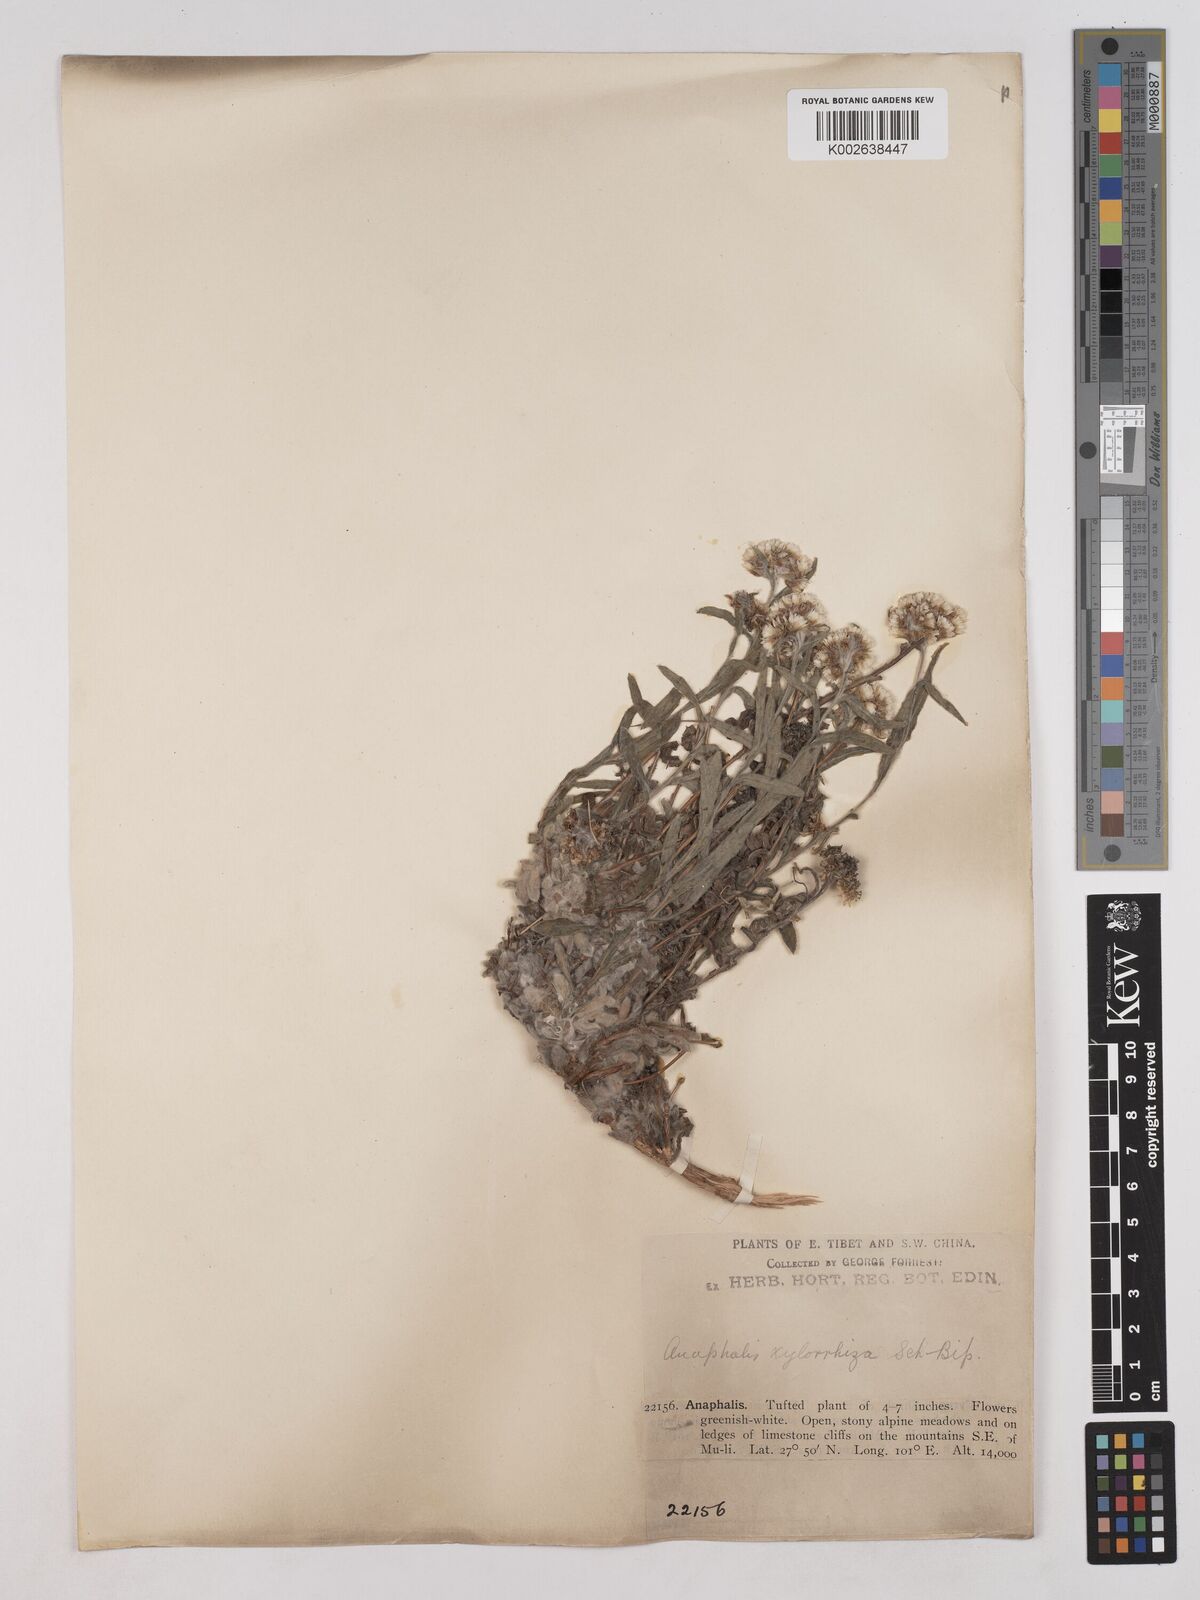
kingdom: Plantae
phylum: Tracheophyta
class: Magnoliopsida
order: Asterales
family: Asteraceae
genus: Anaphalis
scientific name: Anaphalis rhododactyla
